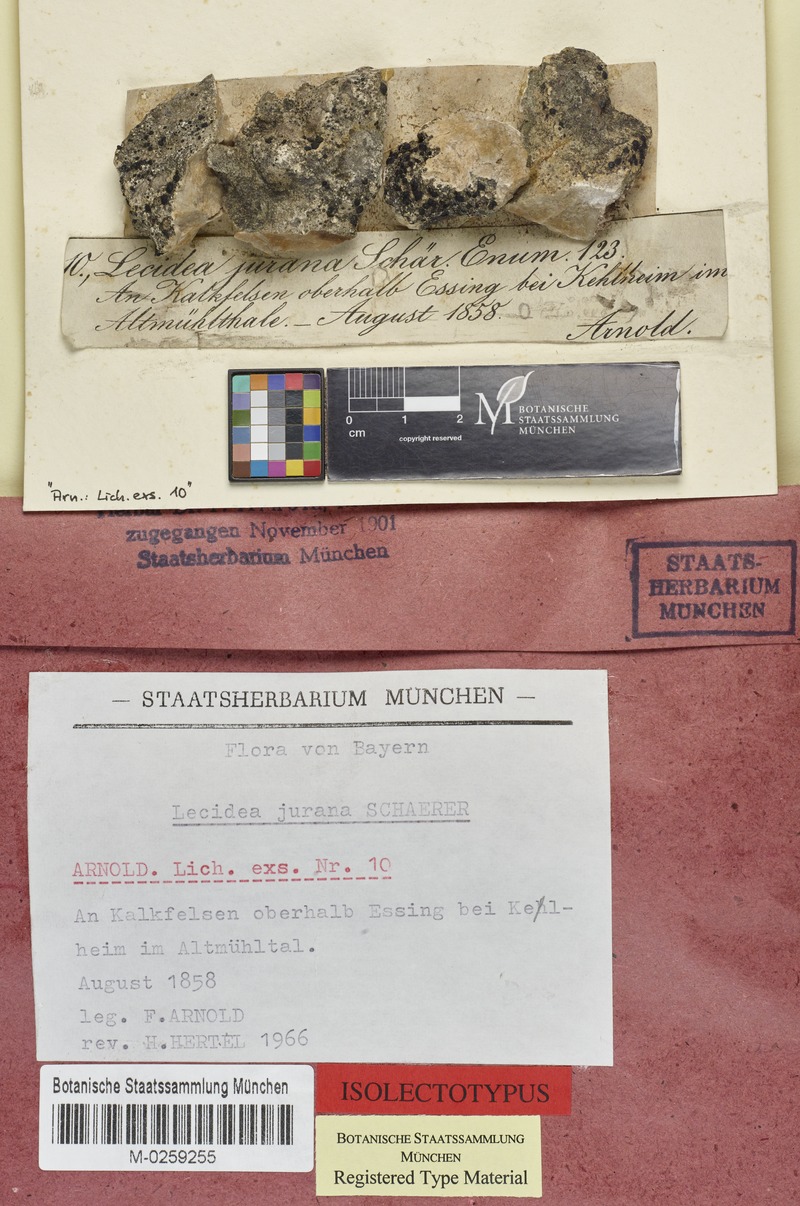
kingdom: Fungi
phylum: Ascomycota
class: Lecanoromycetes
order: Lecideales
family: Lecideaceae
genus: Farnoldia
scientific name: Farnoldia jurana
